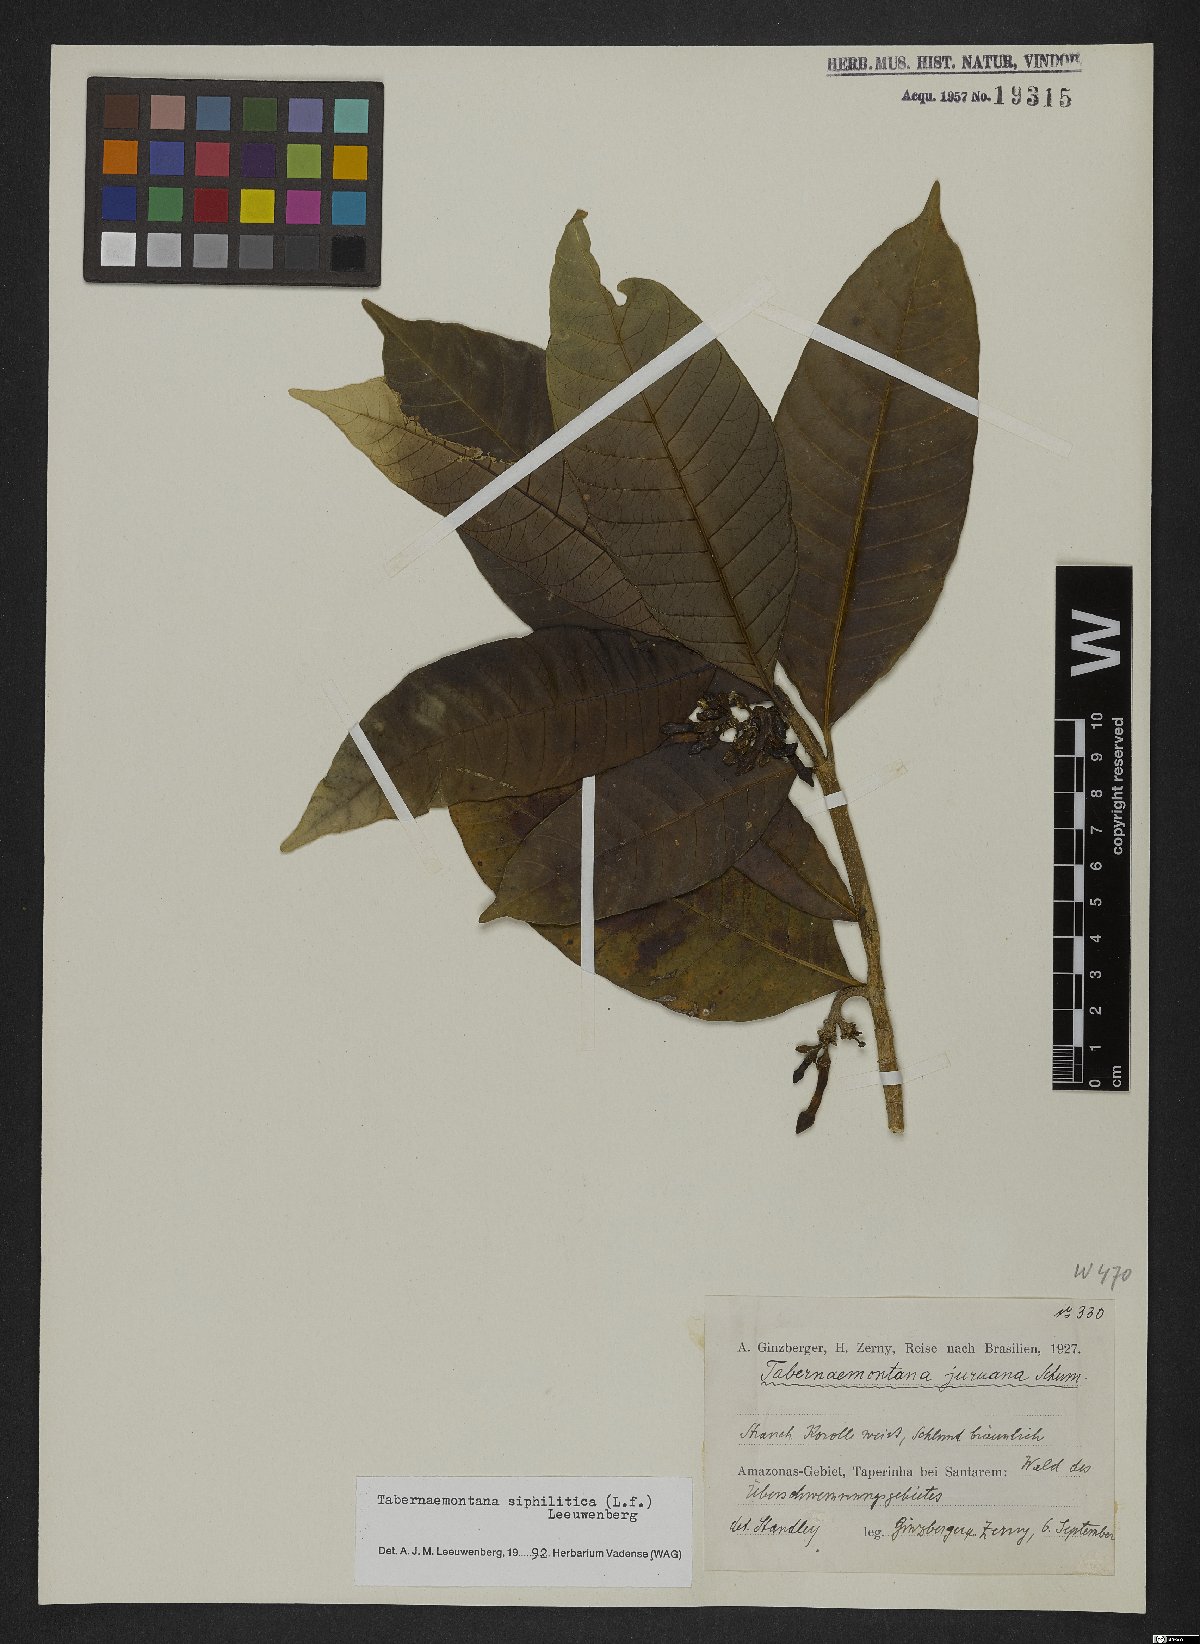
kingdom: Plantae
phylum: Tracheophyta
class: Magnoliopsida
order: Gentianales
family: Apocynaceae
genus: Tabernaemontana
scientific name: Tabernaemontana siphilitica
